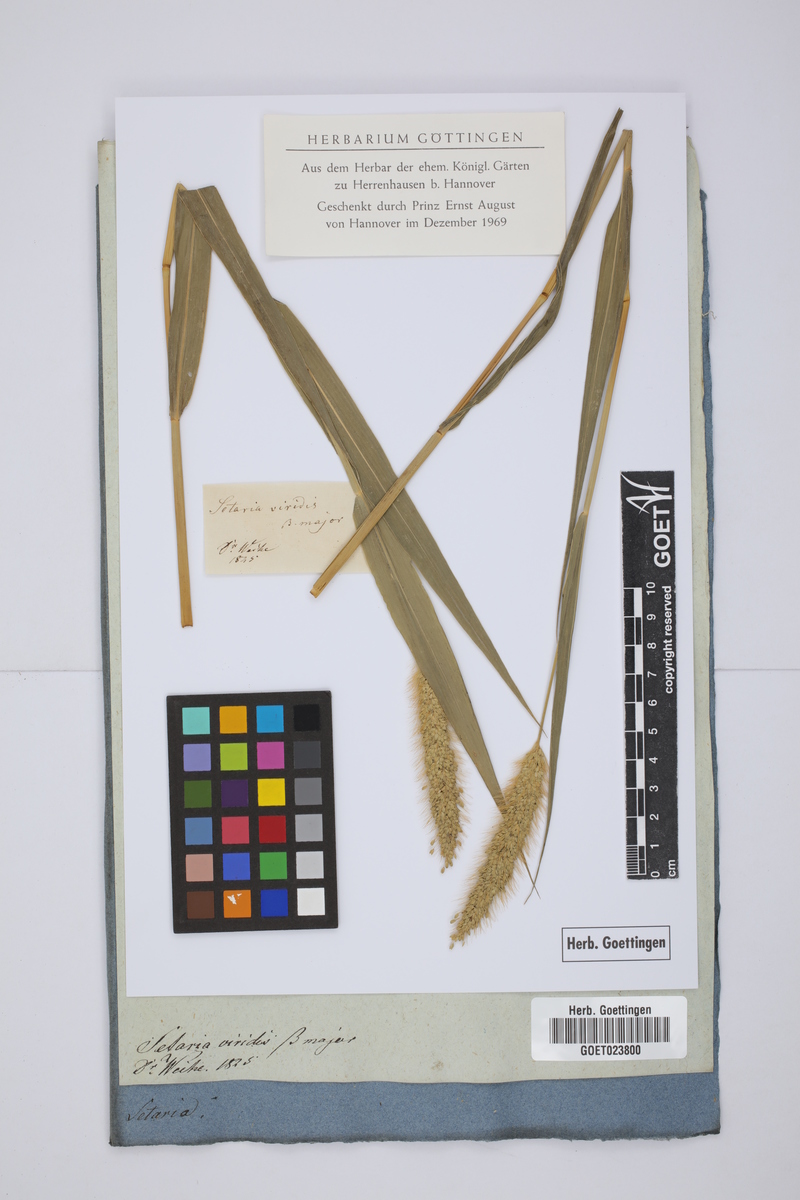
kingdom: Plantae
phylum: Tracheophyta
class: Liliopsida
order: Poales
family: Poaceae
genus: Setaria
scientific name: Setaria viridis
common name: Green bristlegrass
